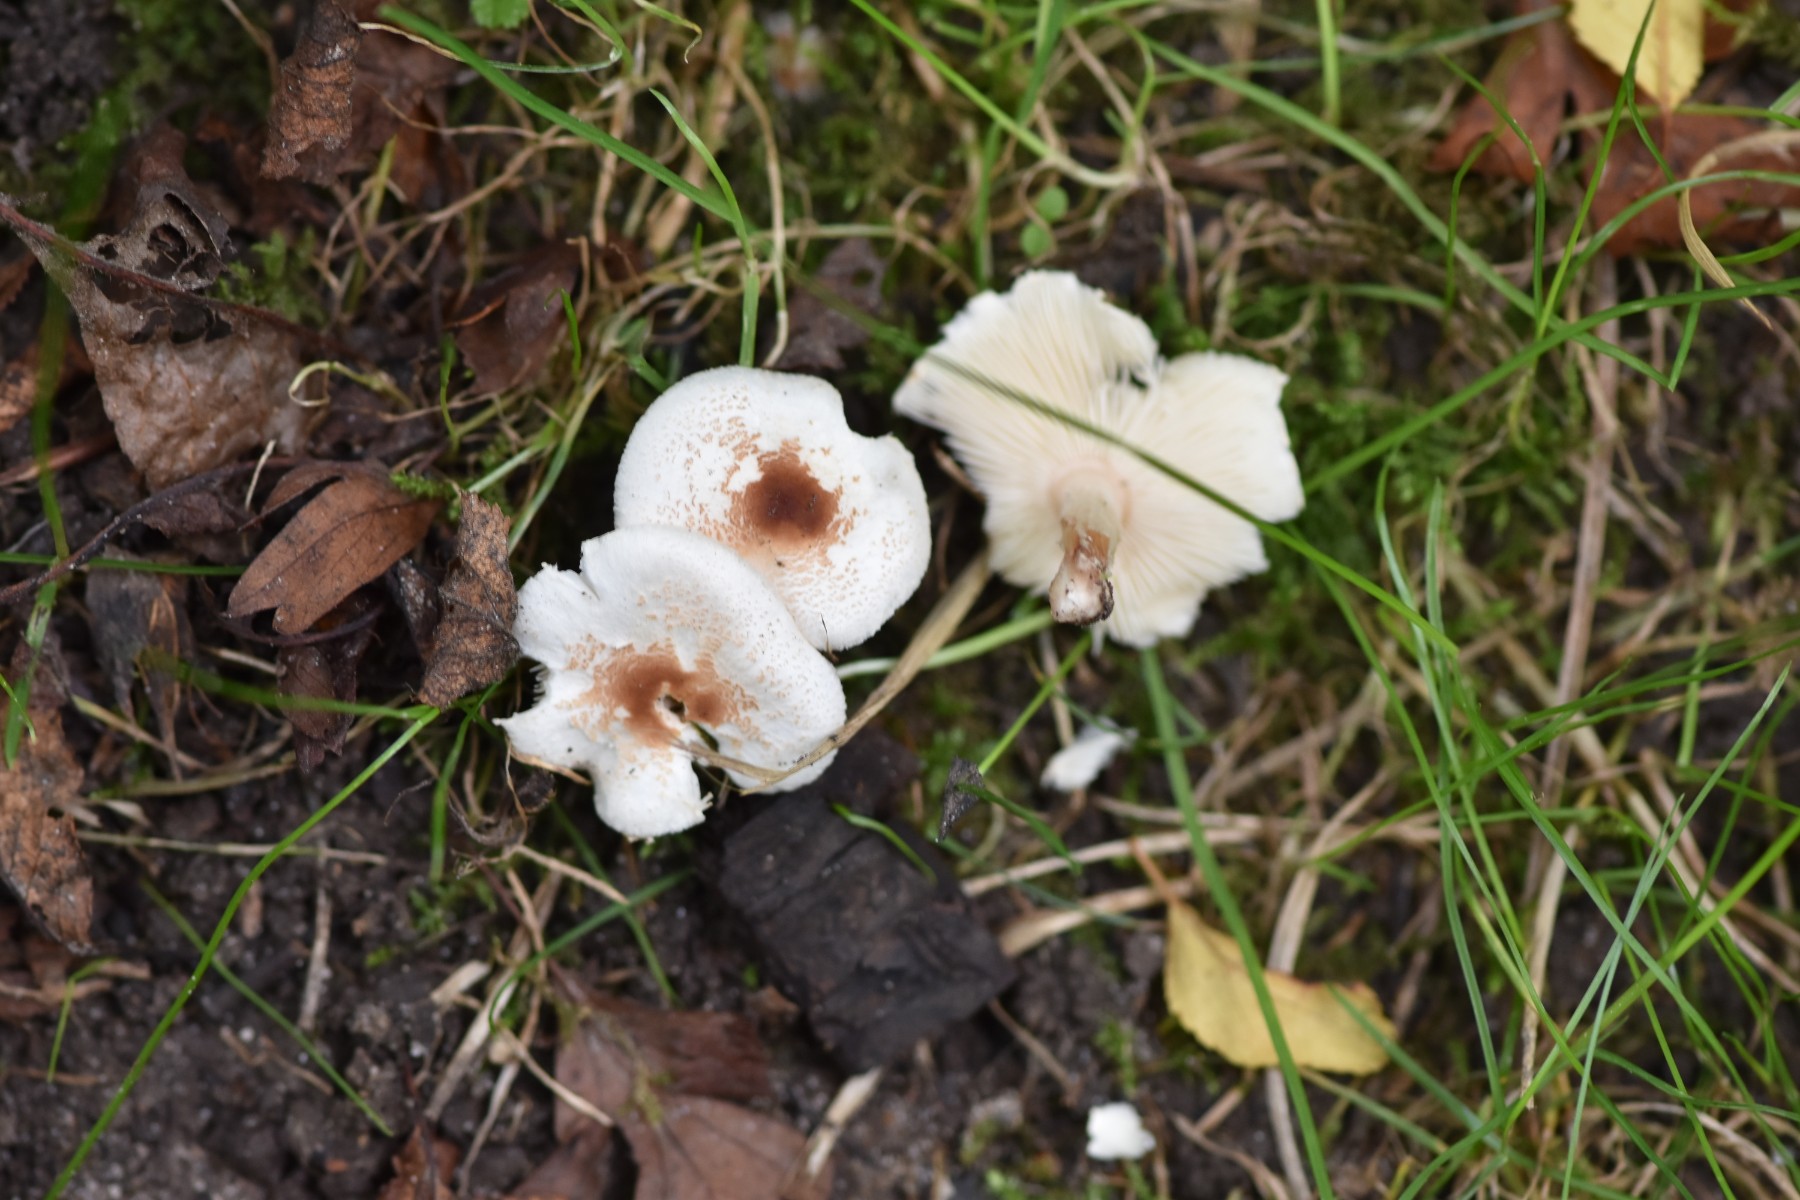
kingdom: Fungi
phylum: Basidiomycota
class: Agaricomycetes
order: Agaricales
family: Agaricaceae
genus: Lepiota
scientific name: Lepiota cristata
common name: stinkende parasolhat
